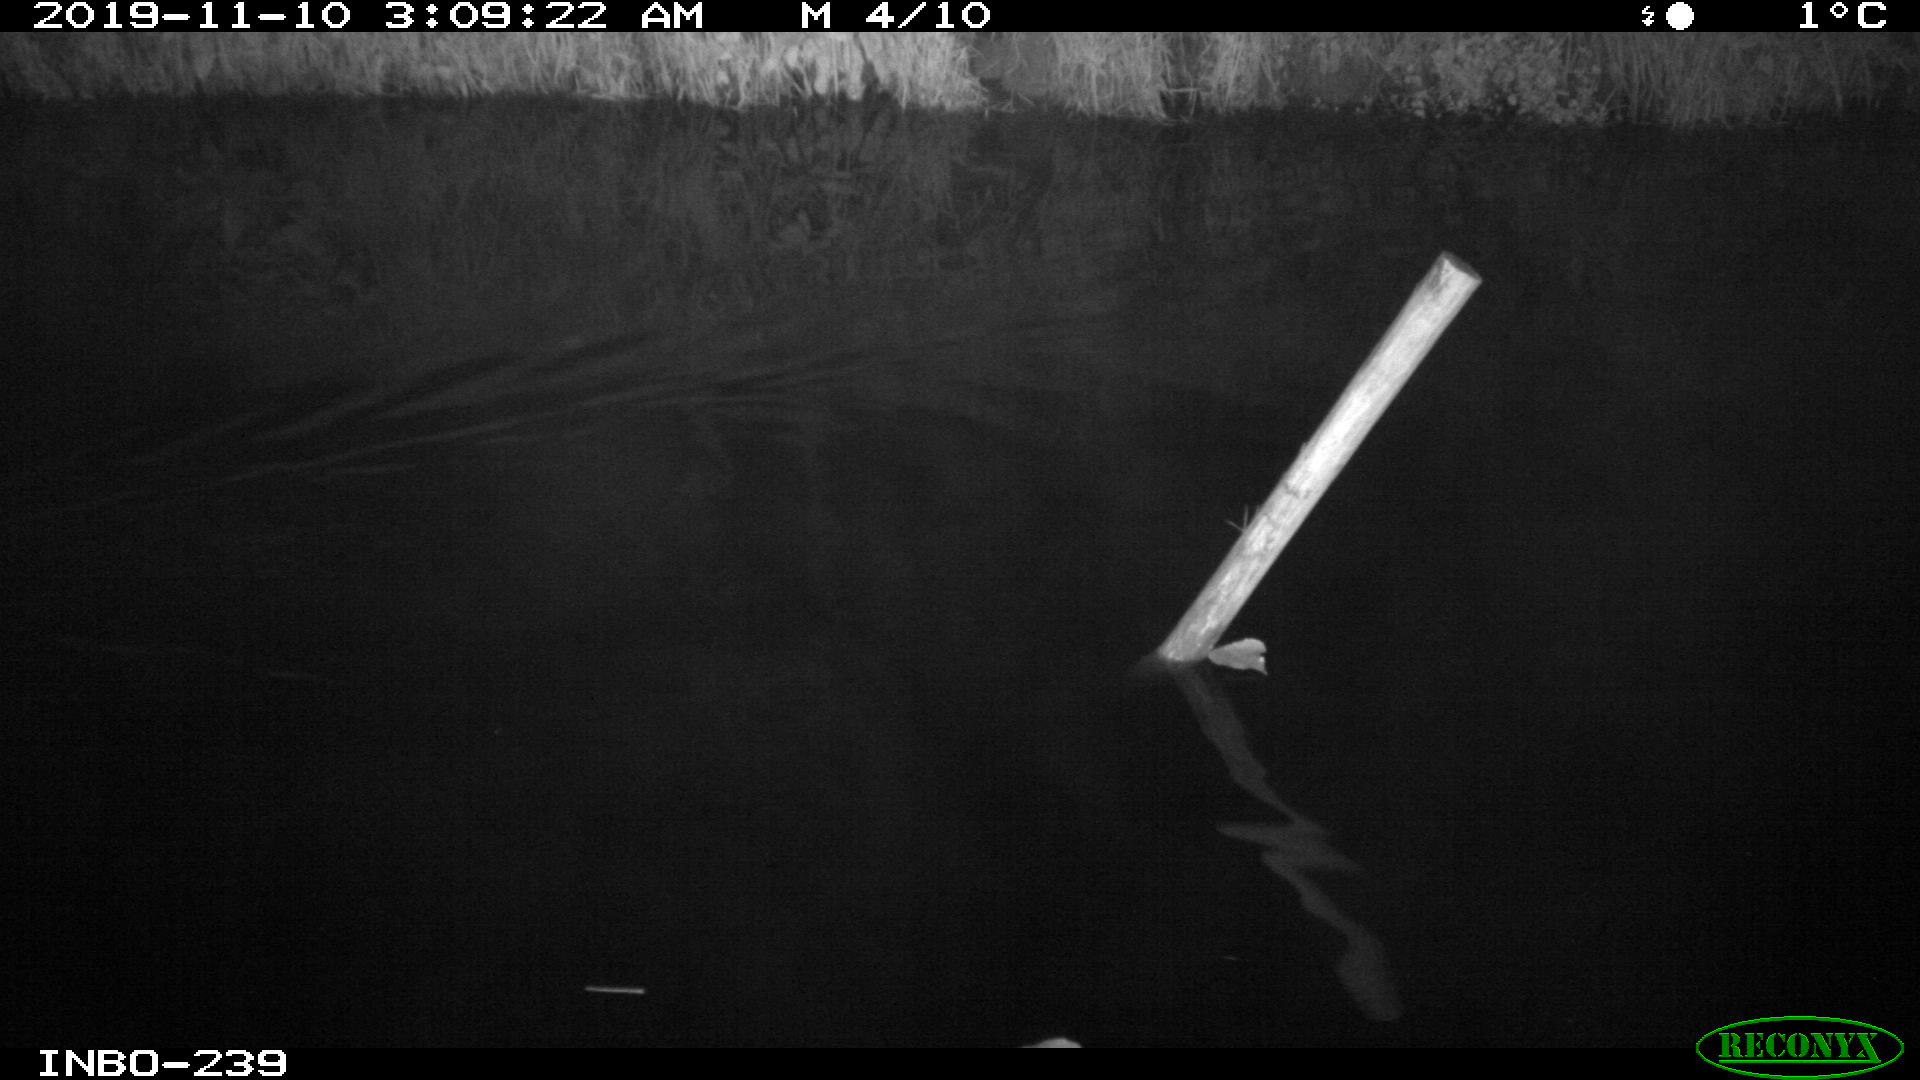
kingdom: Animalia
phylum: Chordata
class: Aves
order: Anseriformes
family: Anatidae
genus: Anas
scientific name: Anas platyrhynchos
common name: Mallard
